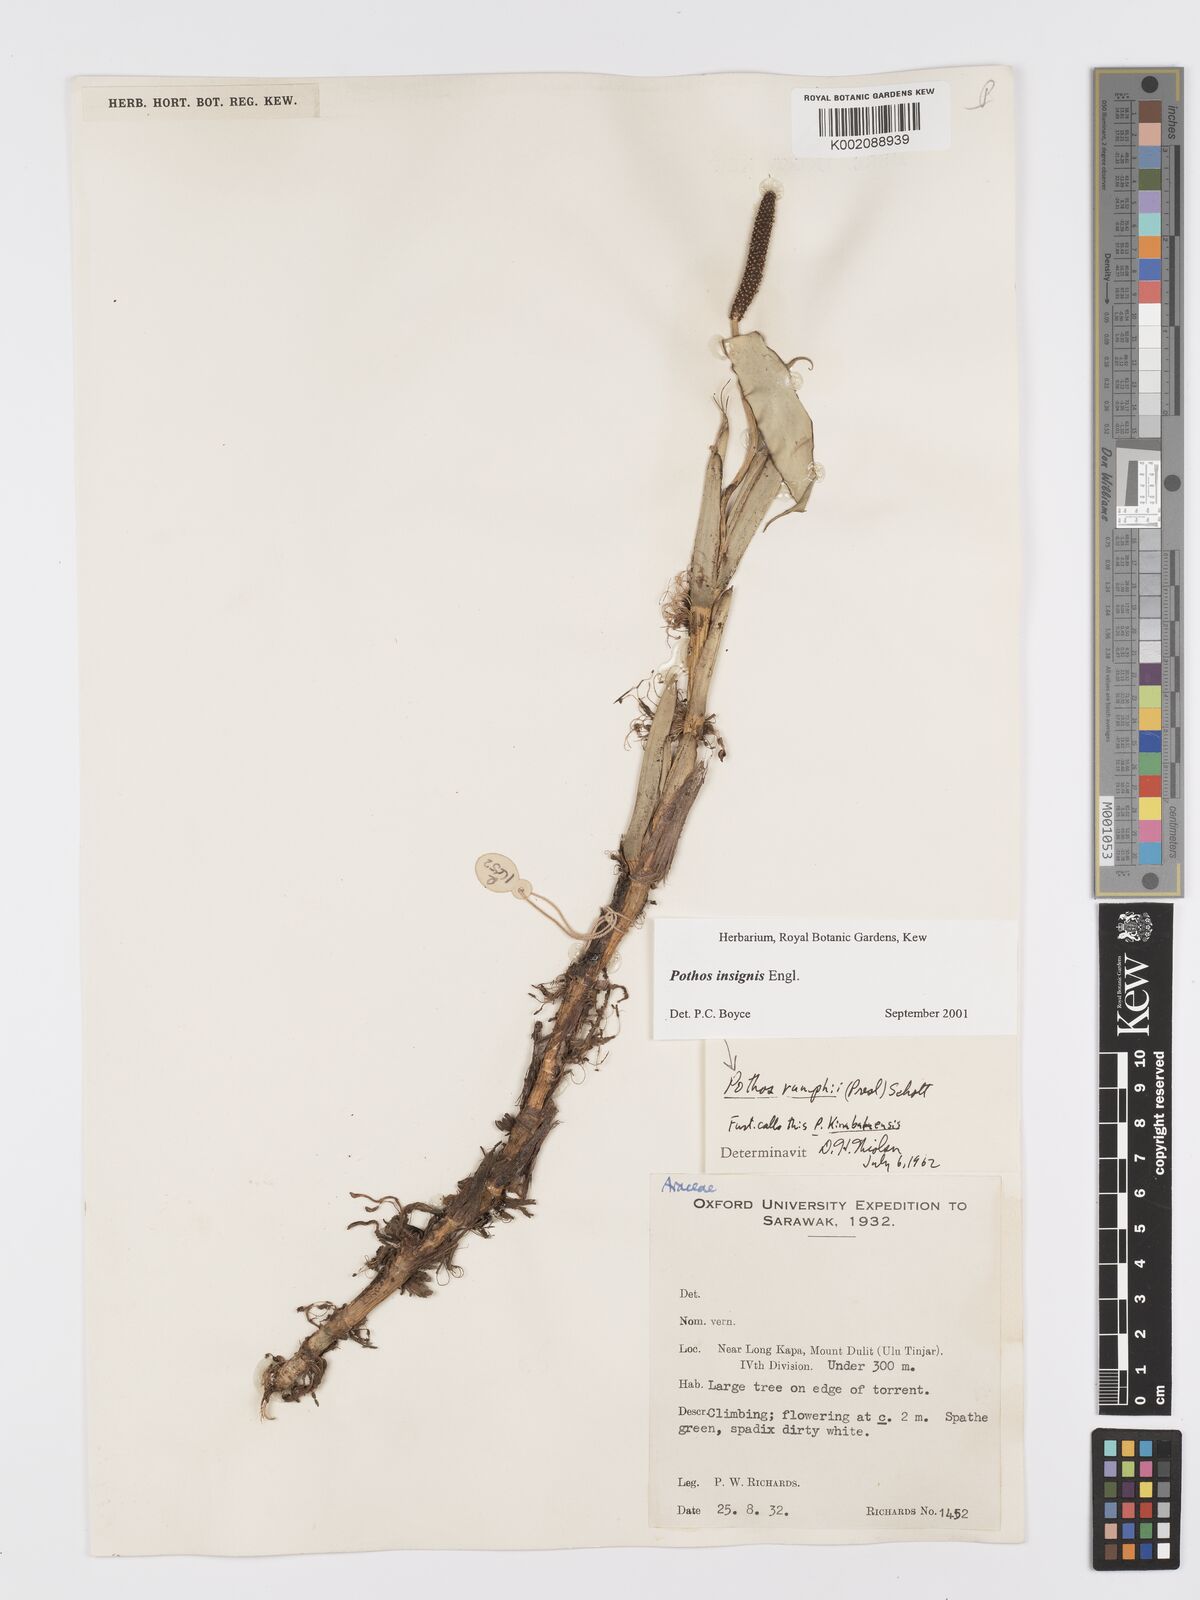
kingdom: Plantae
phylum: Tracheophyta
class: Liliopsida
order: Alismatales
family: Araceae
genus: Pothos
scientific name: Pothos insignis
